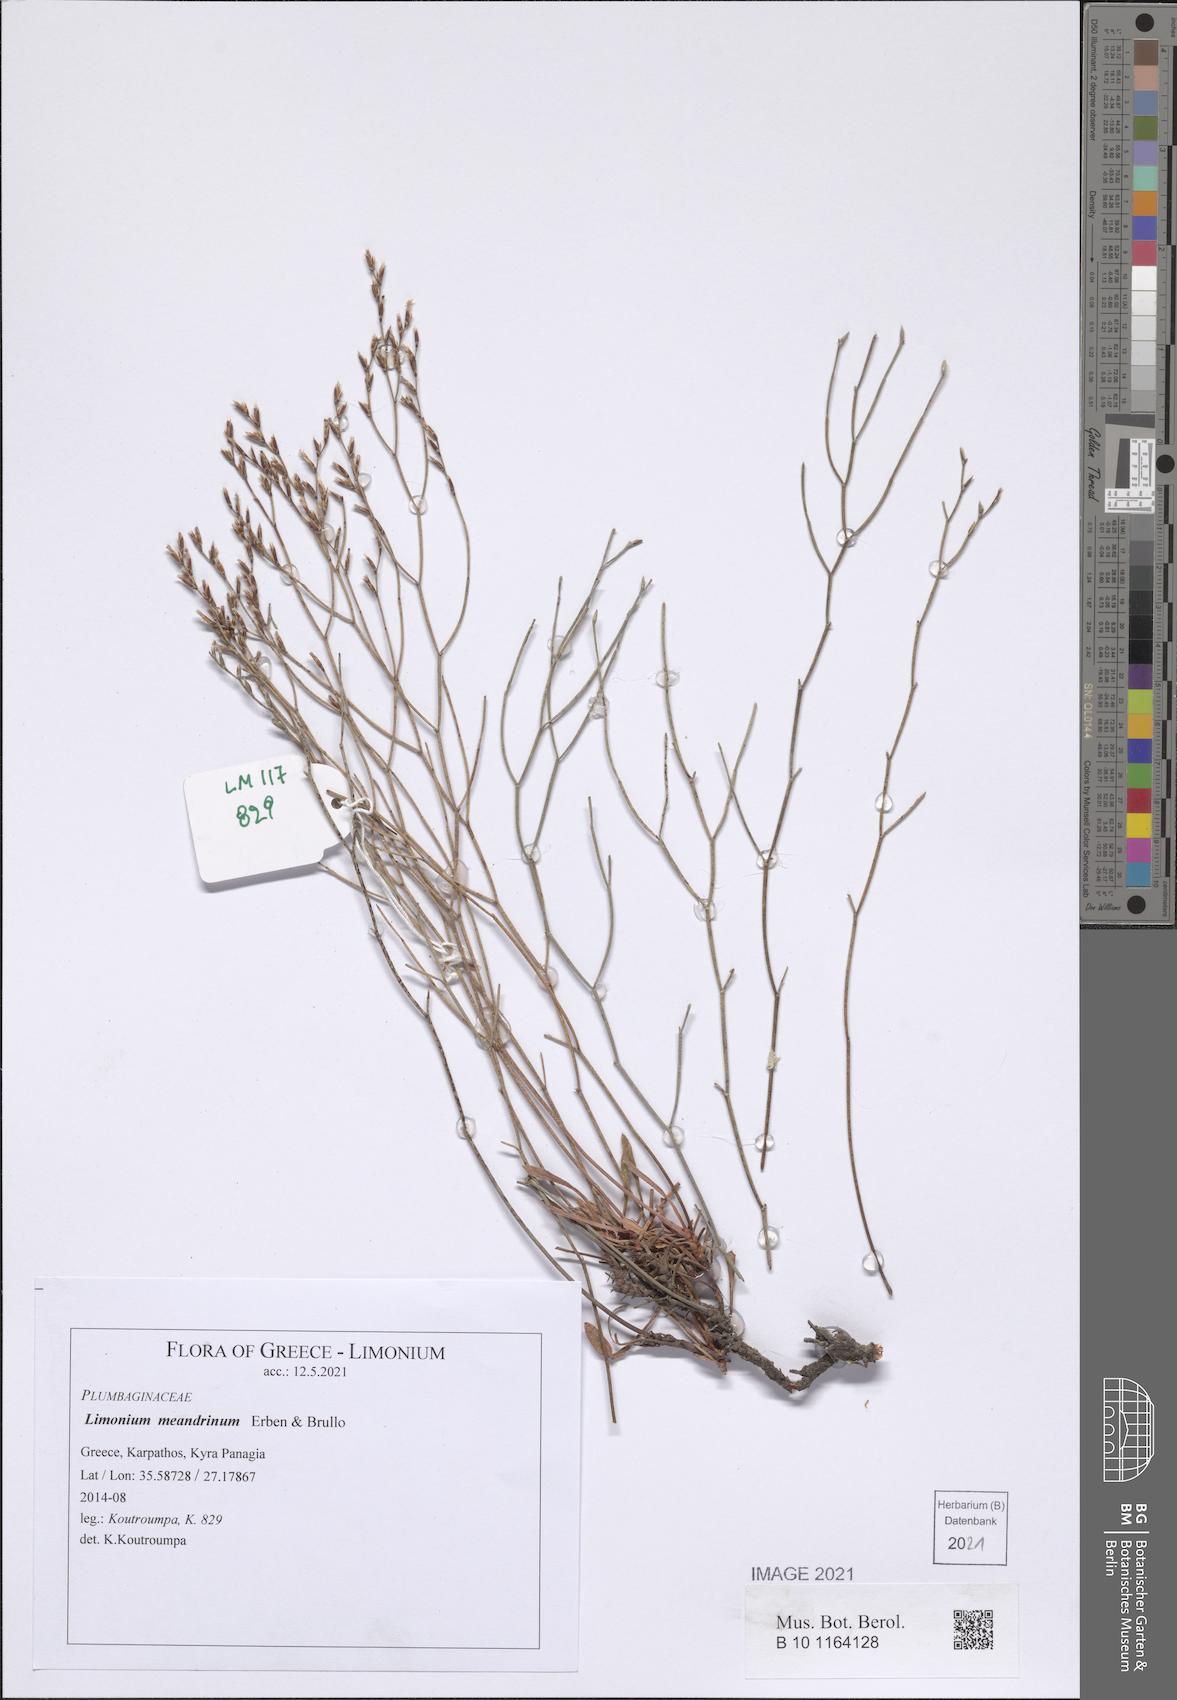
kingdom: Plantae
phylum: Tracheophyta
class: Magnoliopsida
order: Caryophyllales
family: Plumbaginaceae
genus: Limonium
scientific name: Limonium meandrinum
